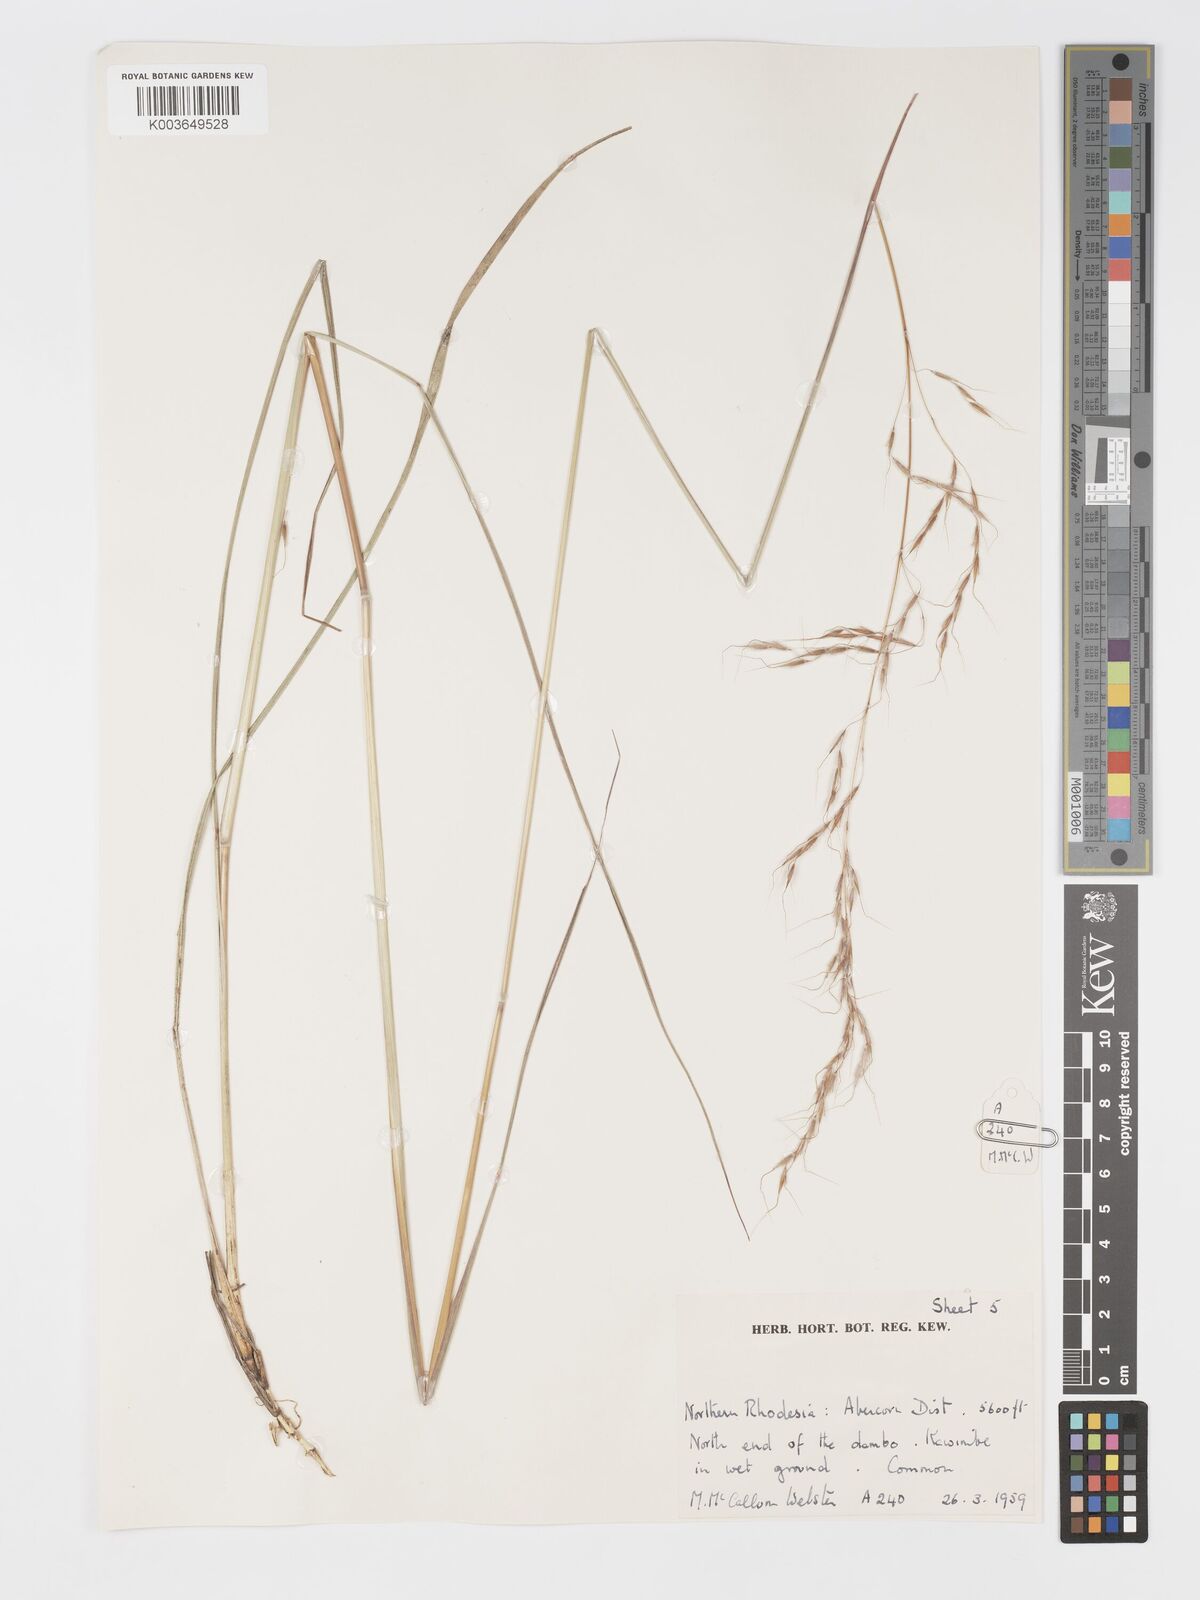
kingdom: Plantae
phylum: Tracheophyta
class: Liliopsida
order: Poales
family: Poaceae
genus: Sorghastrum
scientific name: Sorghastrum nudipes
